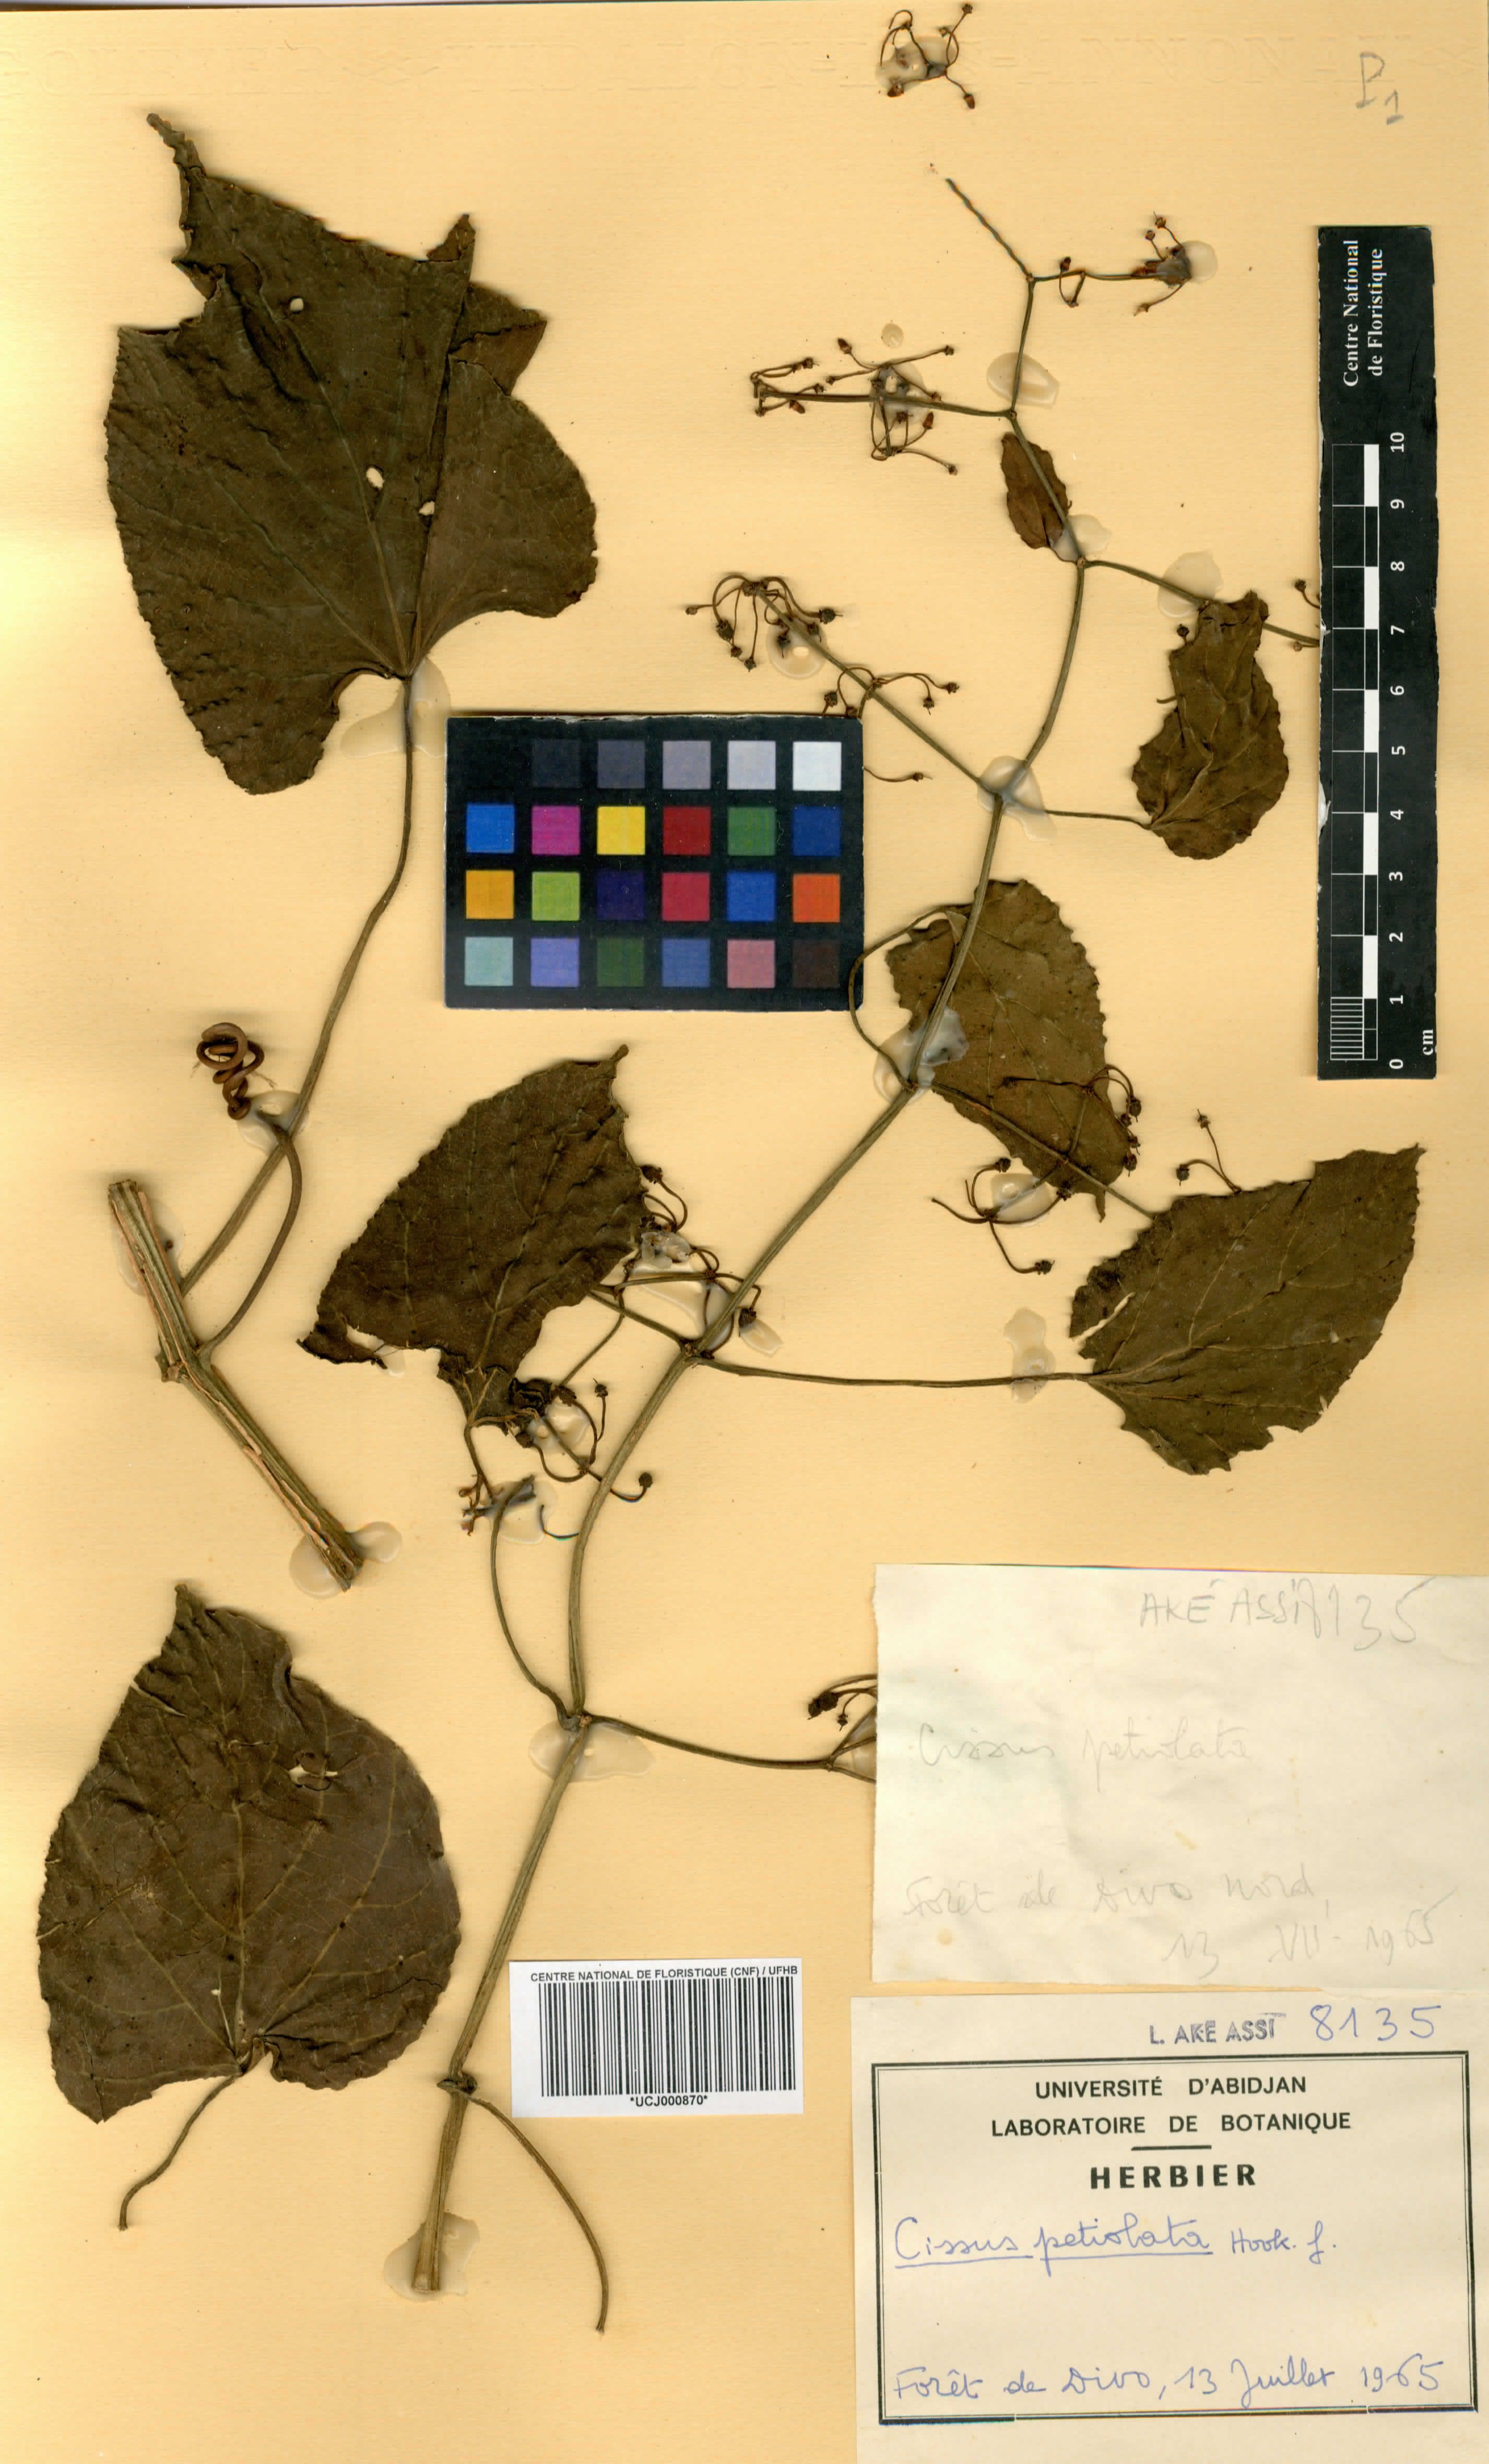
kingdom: Plantae
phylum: Tracheophyta
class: Magnoliopsida
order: Vitales
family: Vitaceae
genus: Cissus
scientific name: Cissus petiolata
